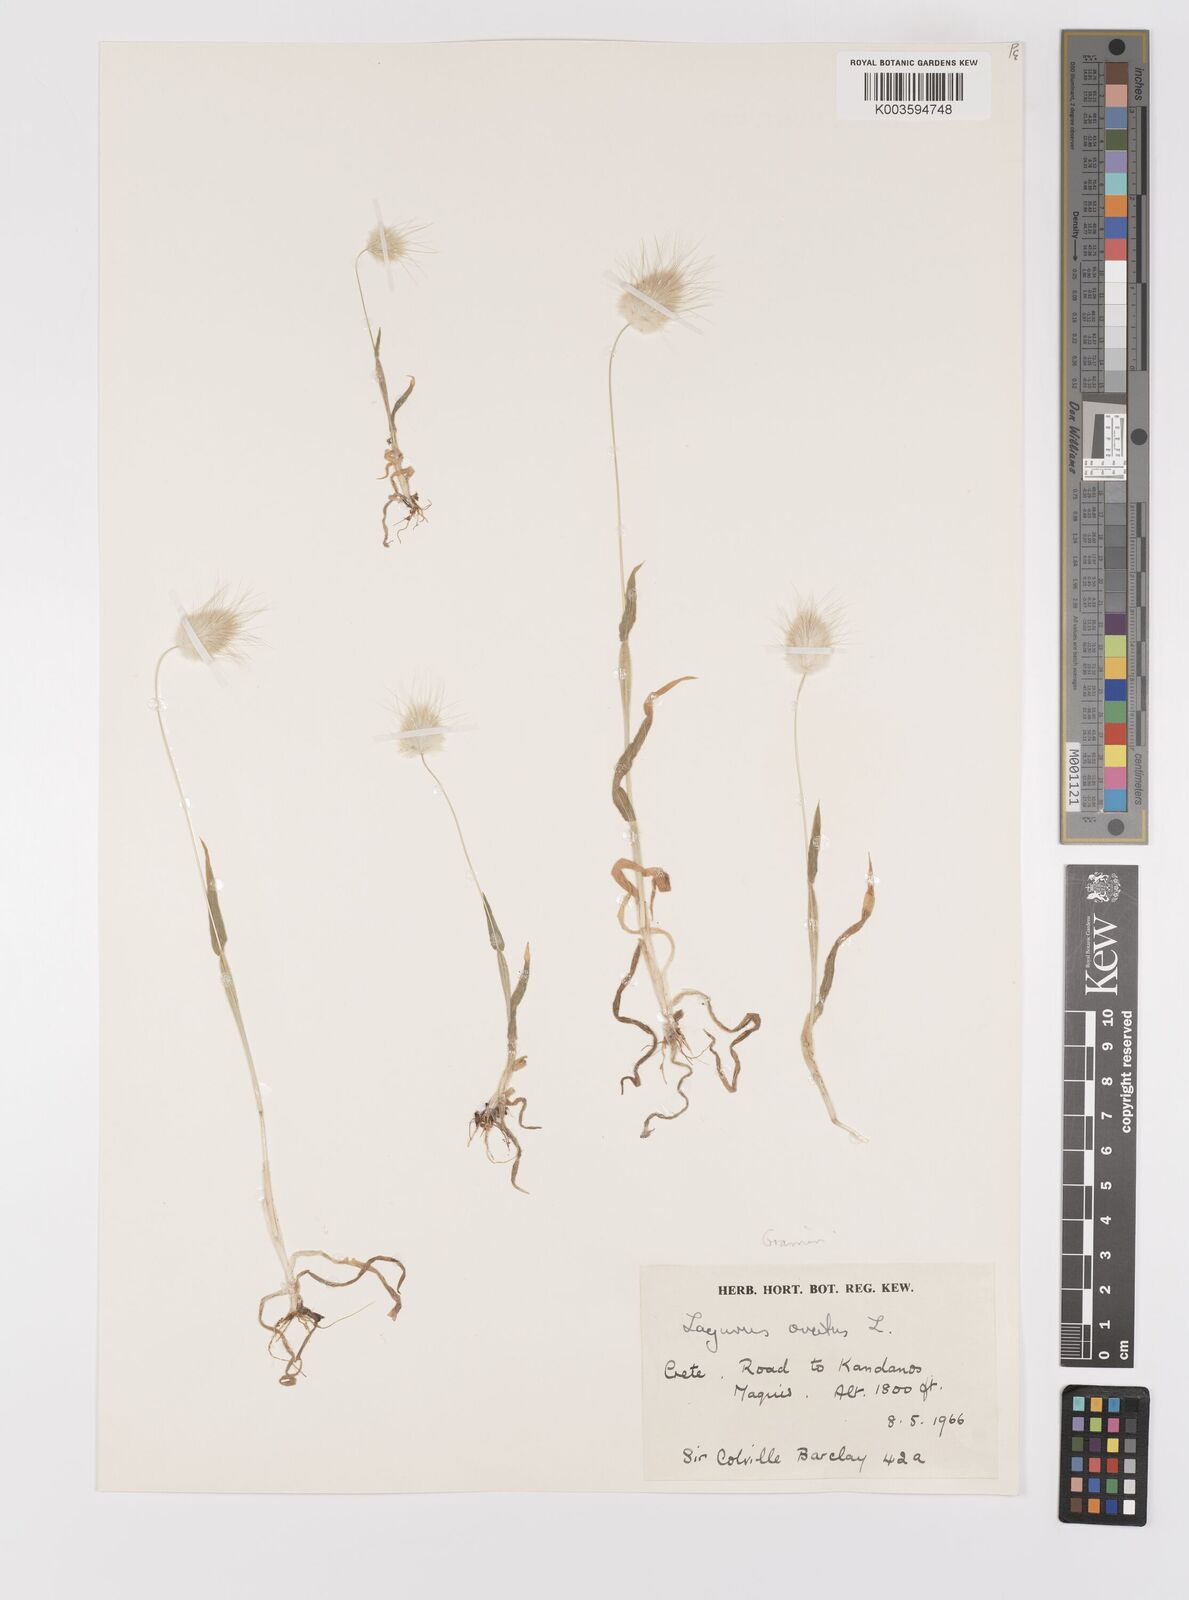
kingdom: Plantae
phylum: Tracheophyta
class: Liliopsida
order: Poales
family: Poaceae
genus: Lagurus
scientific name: Lagurus ovatus
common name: Hare's-tail
